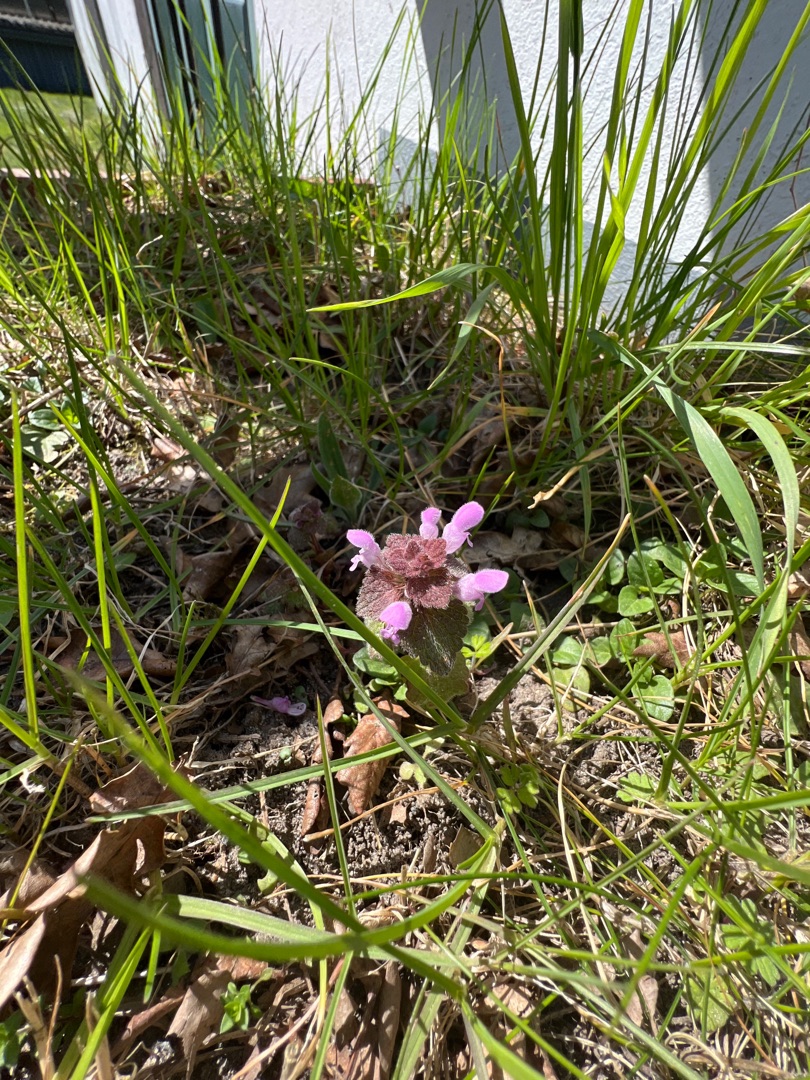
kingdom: Plantae
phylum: Tracheophyta
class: Magnoliopsida
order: Lamiales
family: Lamiaceae
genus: Lamium
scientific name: Lamium purpureum
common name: Rød tvetand
